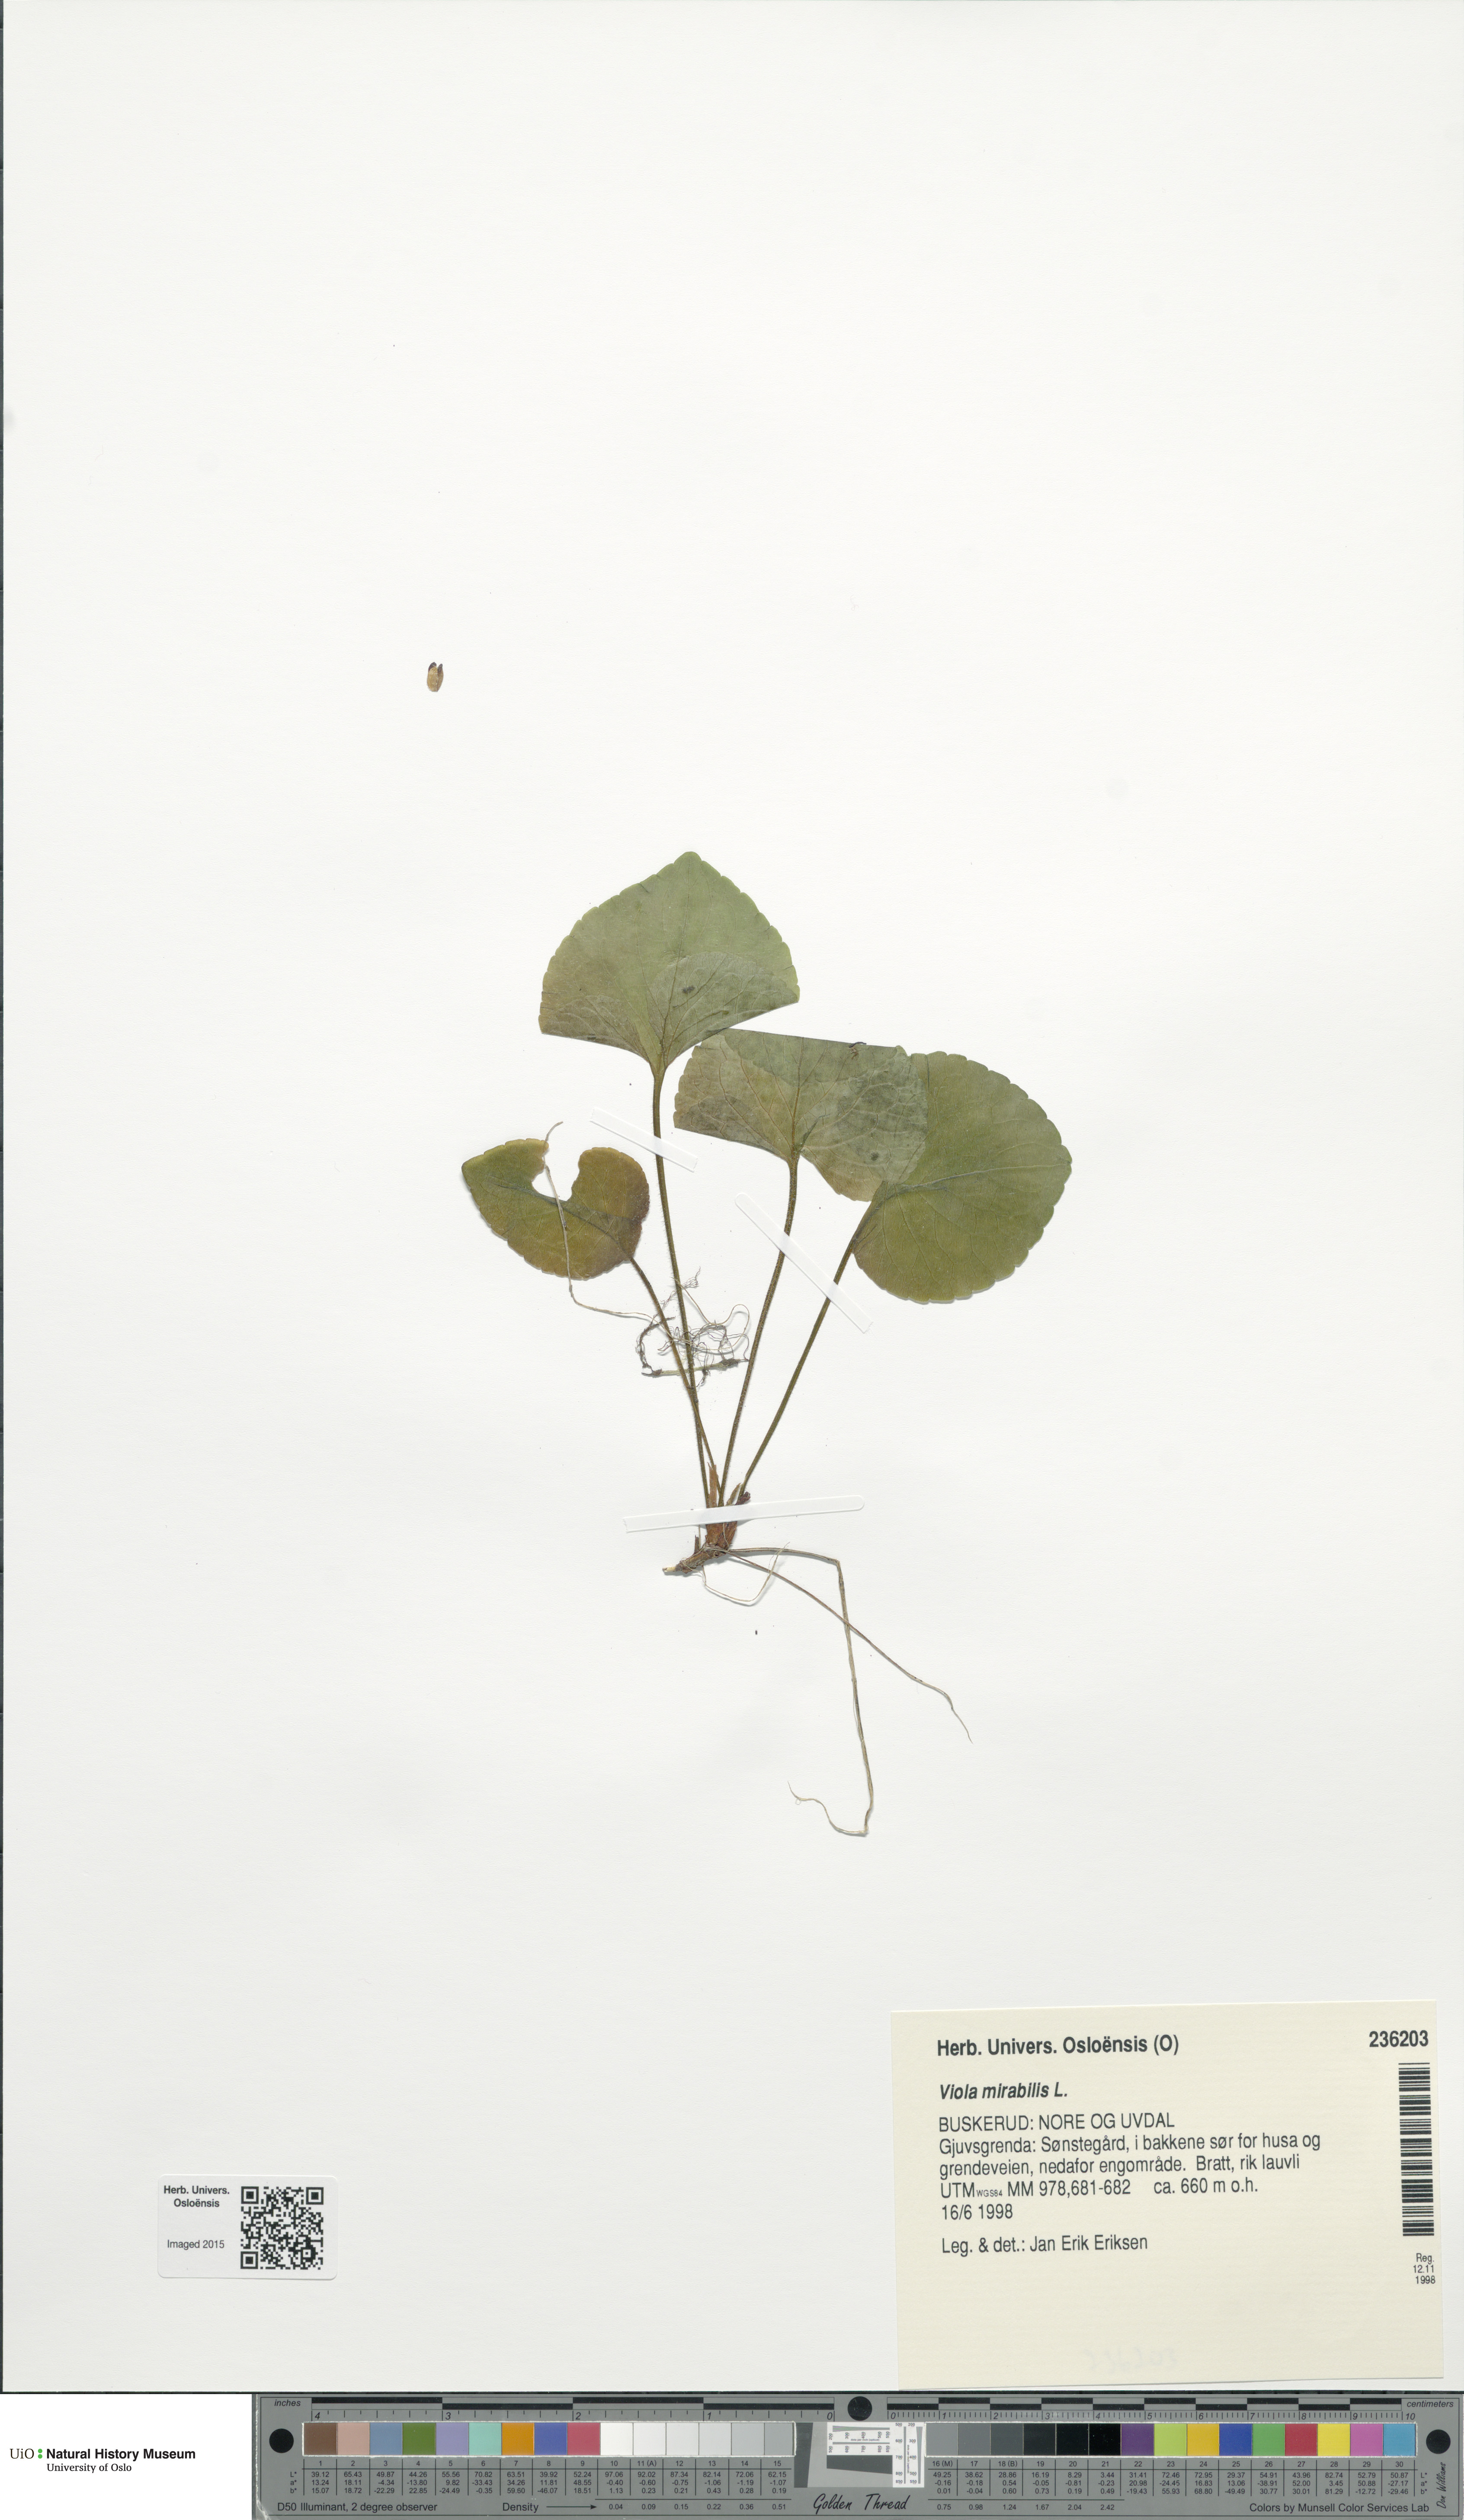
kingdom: Plantae
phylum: Tracheophyta
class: Magnoliopsida
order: Malpighiales
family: Violaceae
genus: Viola
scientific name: Viola mirabilis
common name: Wonder violet
